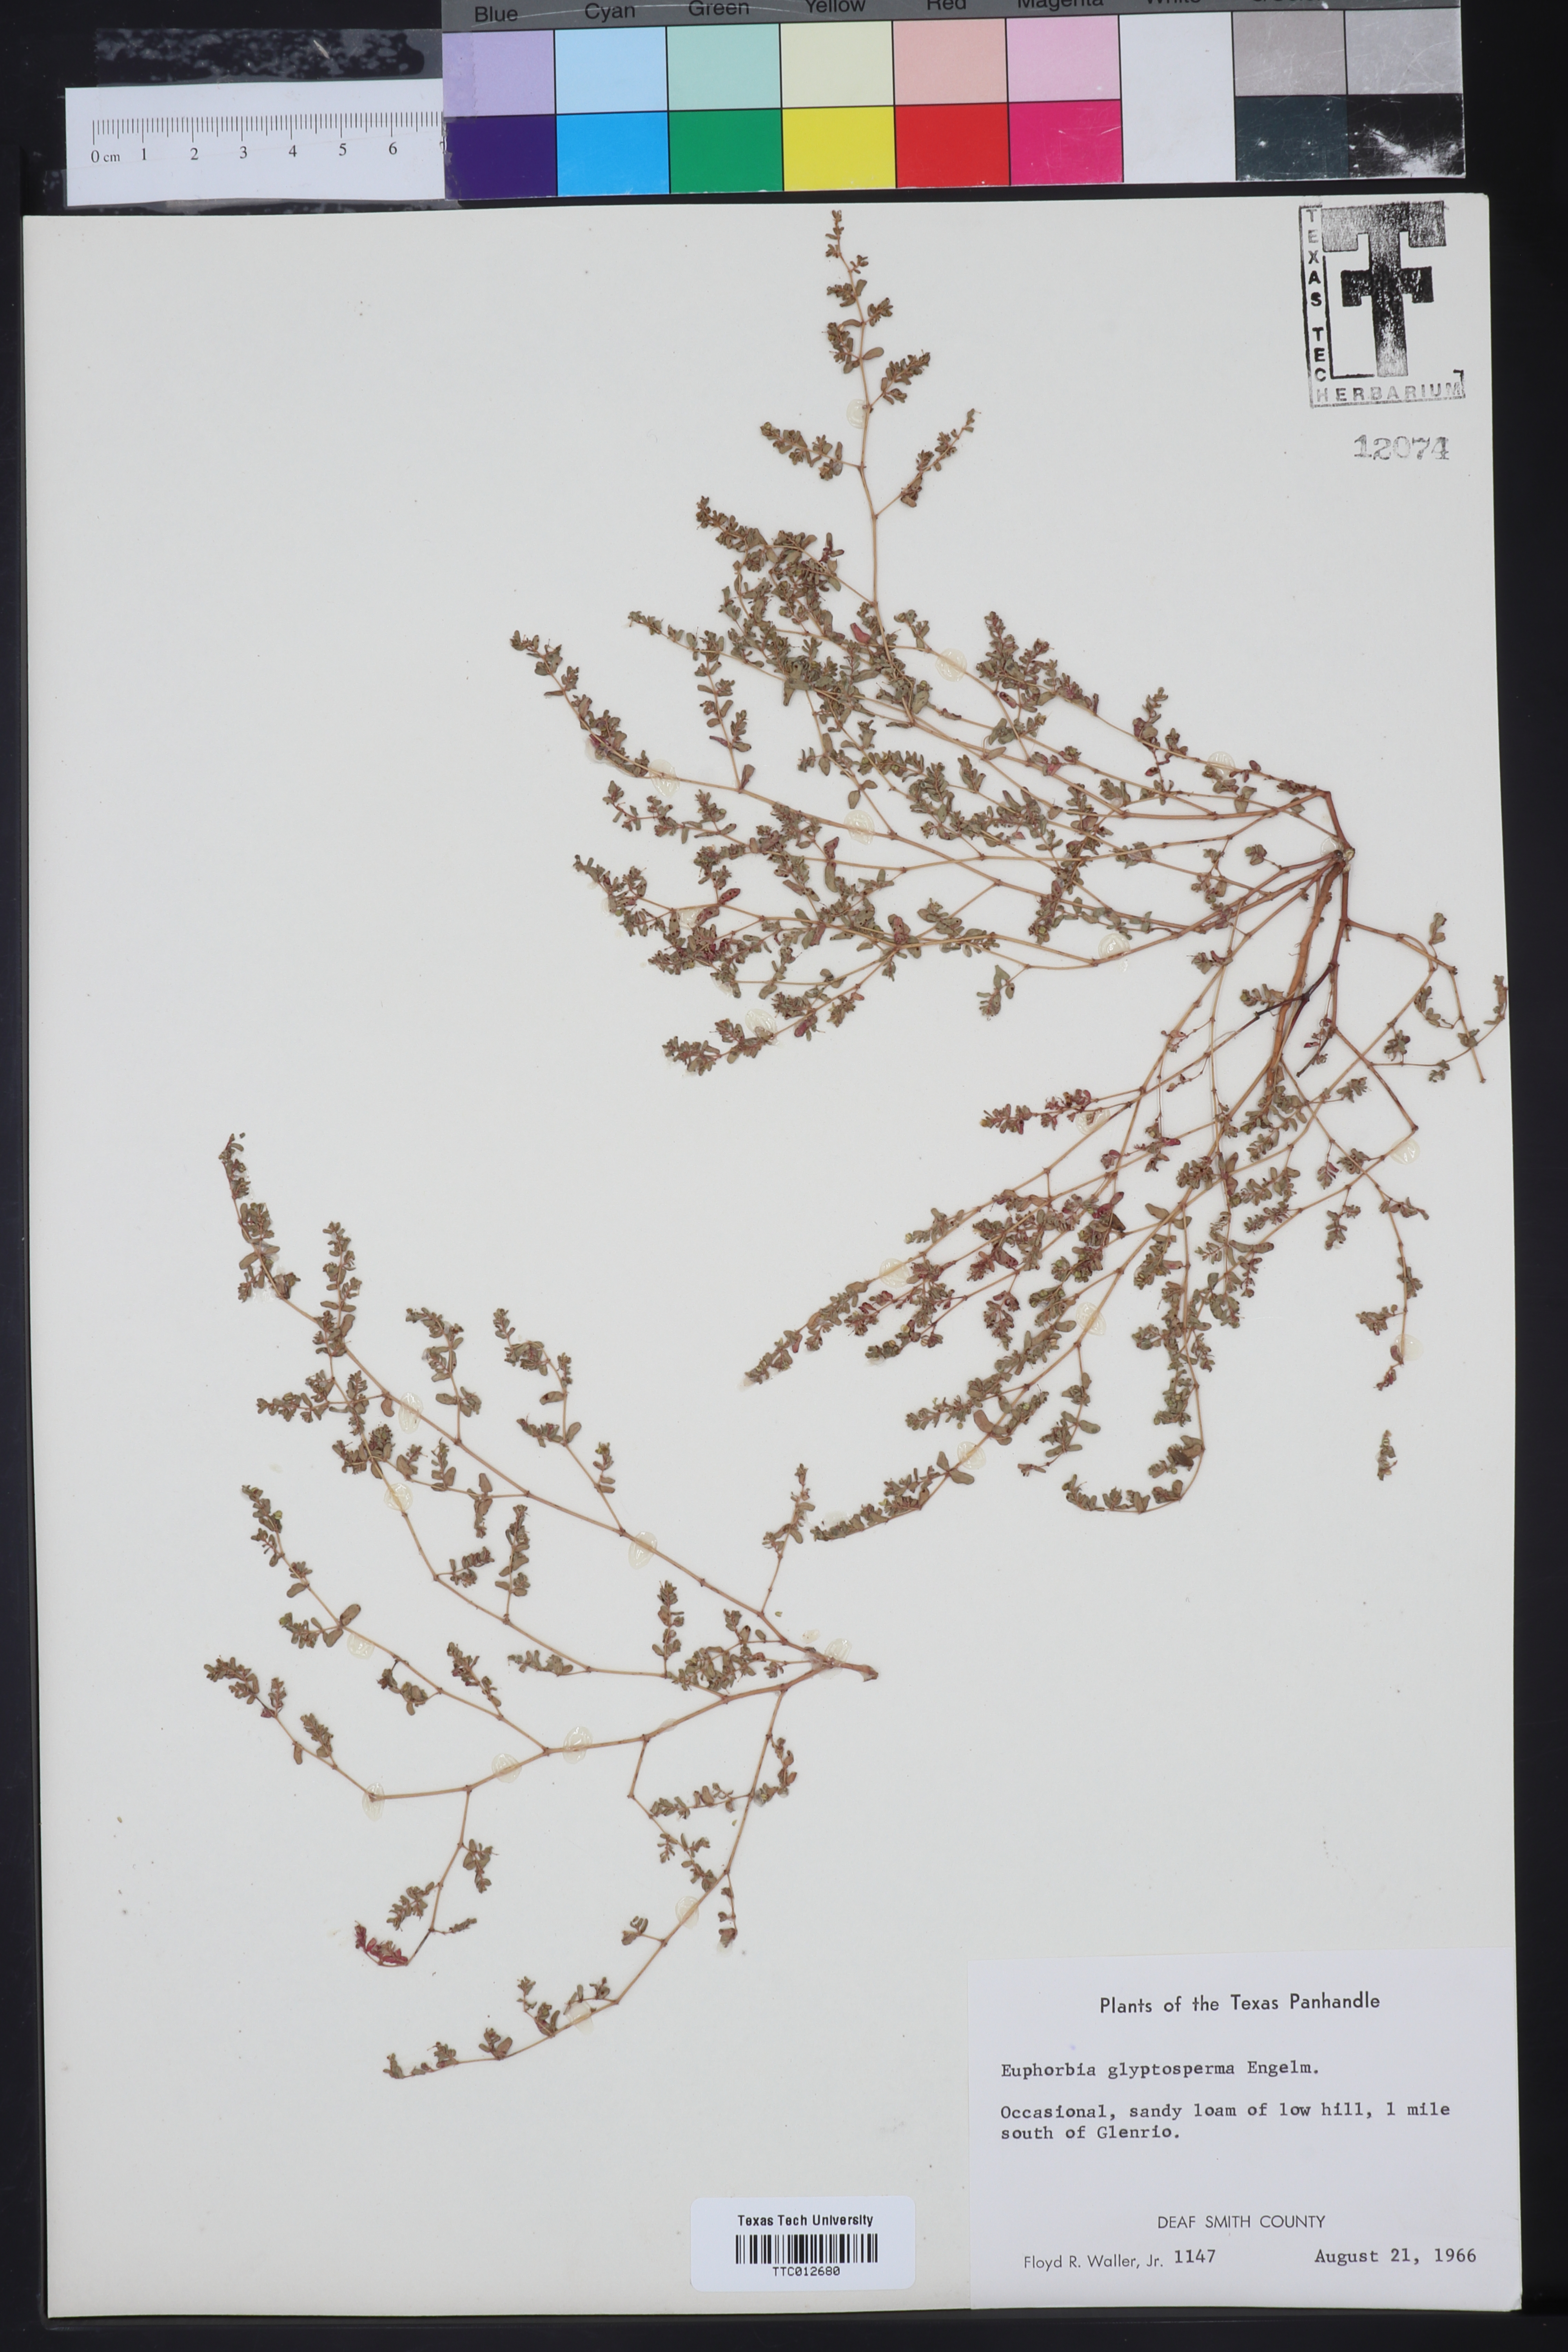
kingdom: Plantae
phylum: Tracheophyta
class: Magnoliopsida
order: Malpighiales
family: Euphorbiaceae
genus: Euphorbia
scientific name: Euphorbia glyptosperma
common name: Corrugate-seeded spurge
